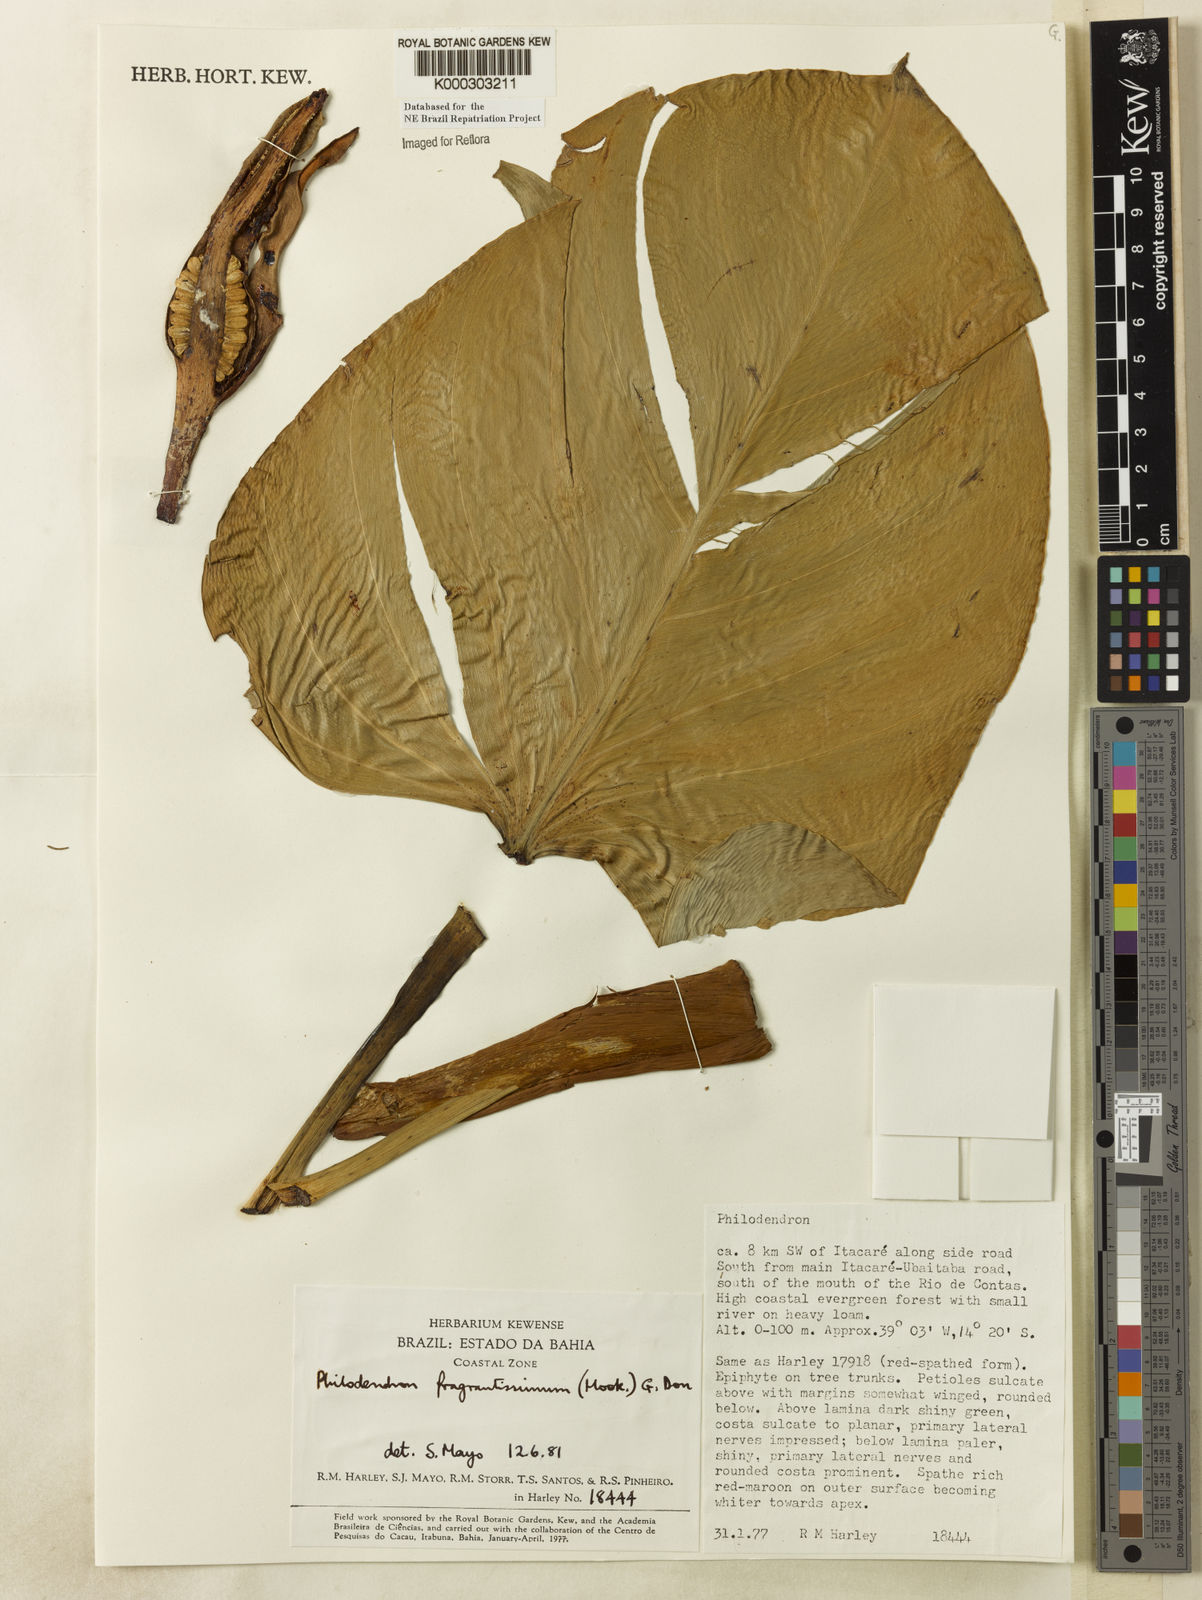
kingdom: Plantae
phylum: Tracheophyta
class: Liliopsida
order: Alismatales
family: Araceae
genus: Philodendron
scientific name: Philodendron fragrantissimum
